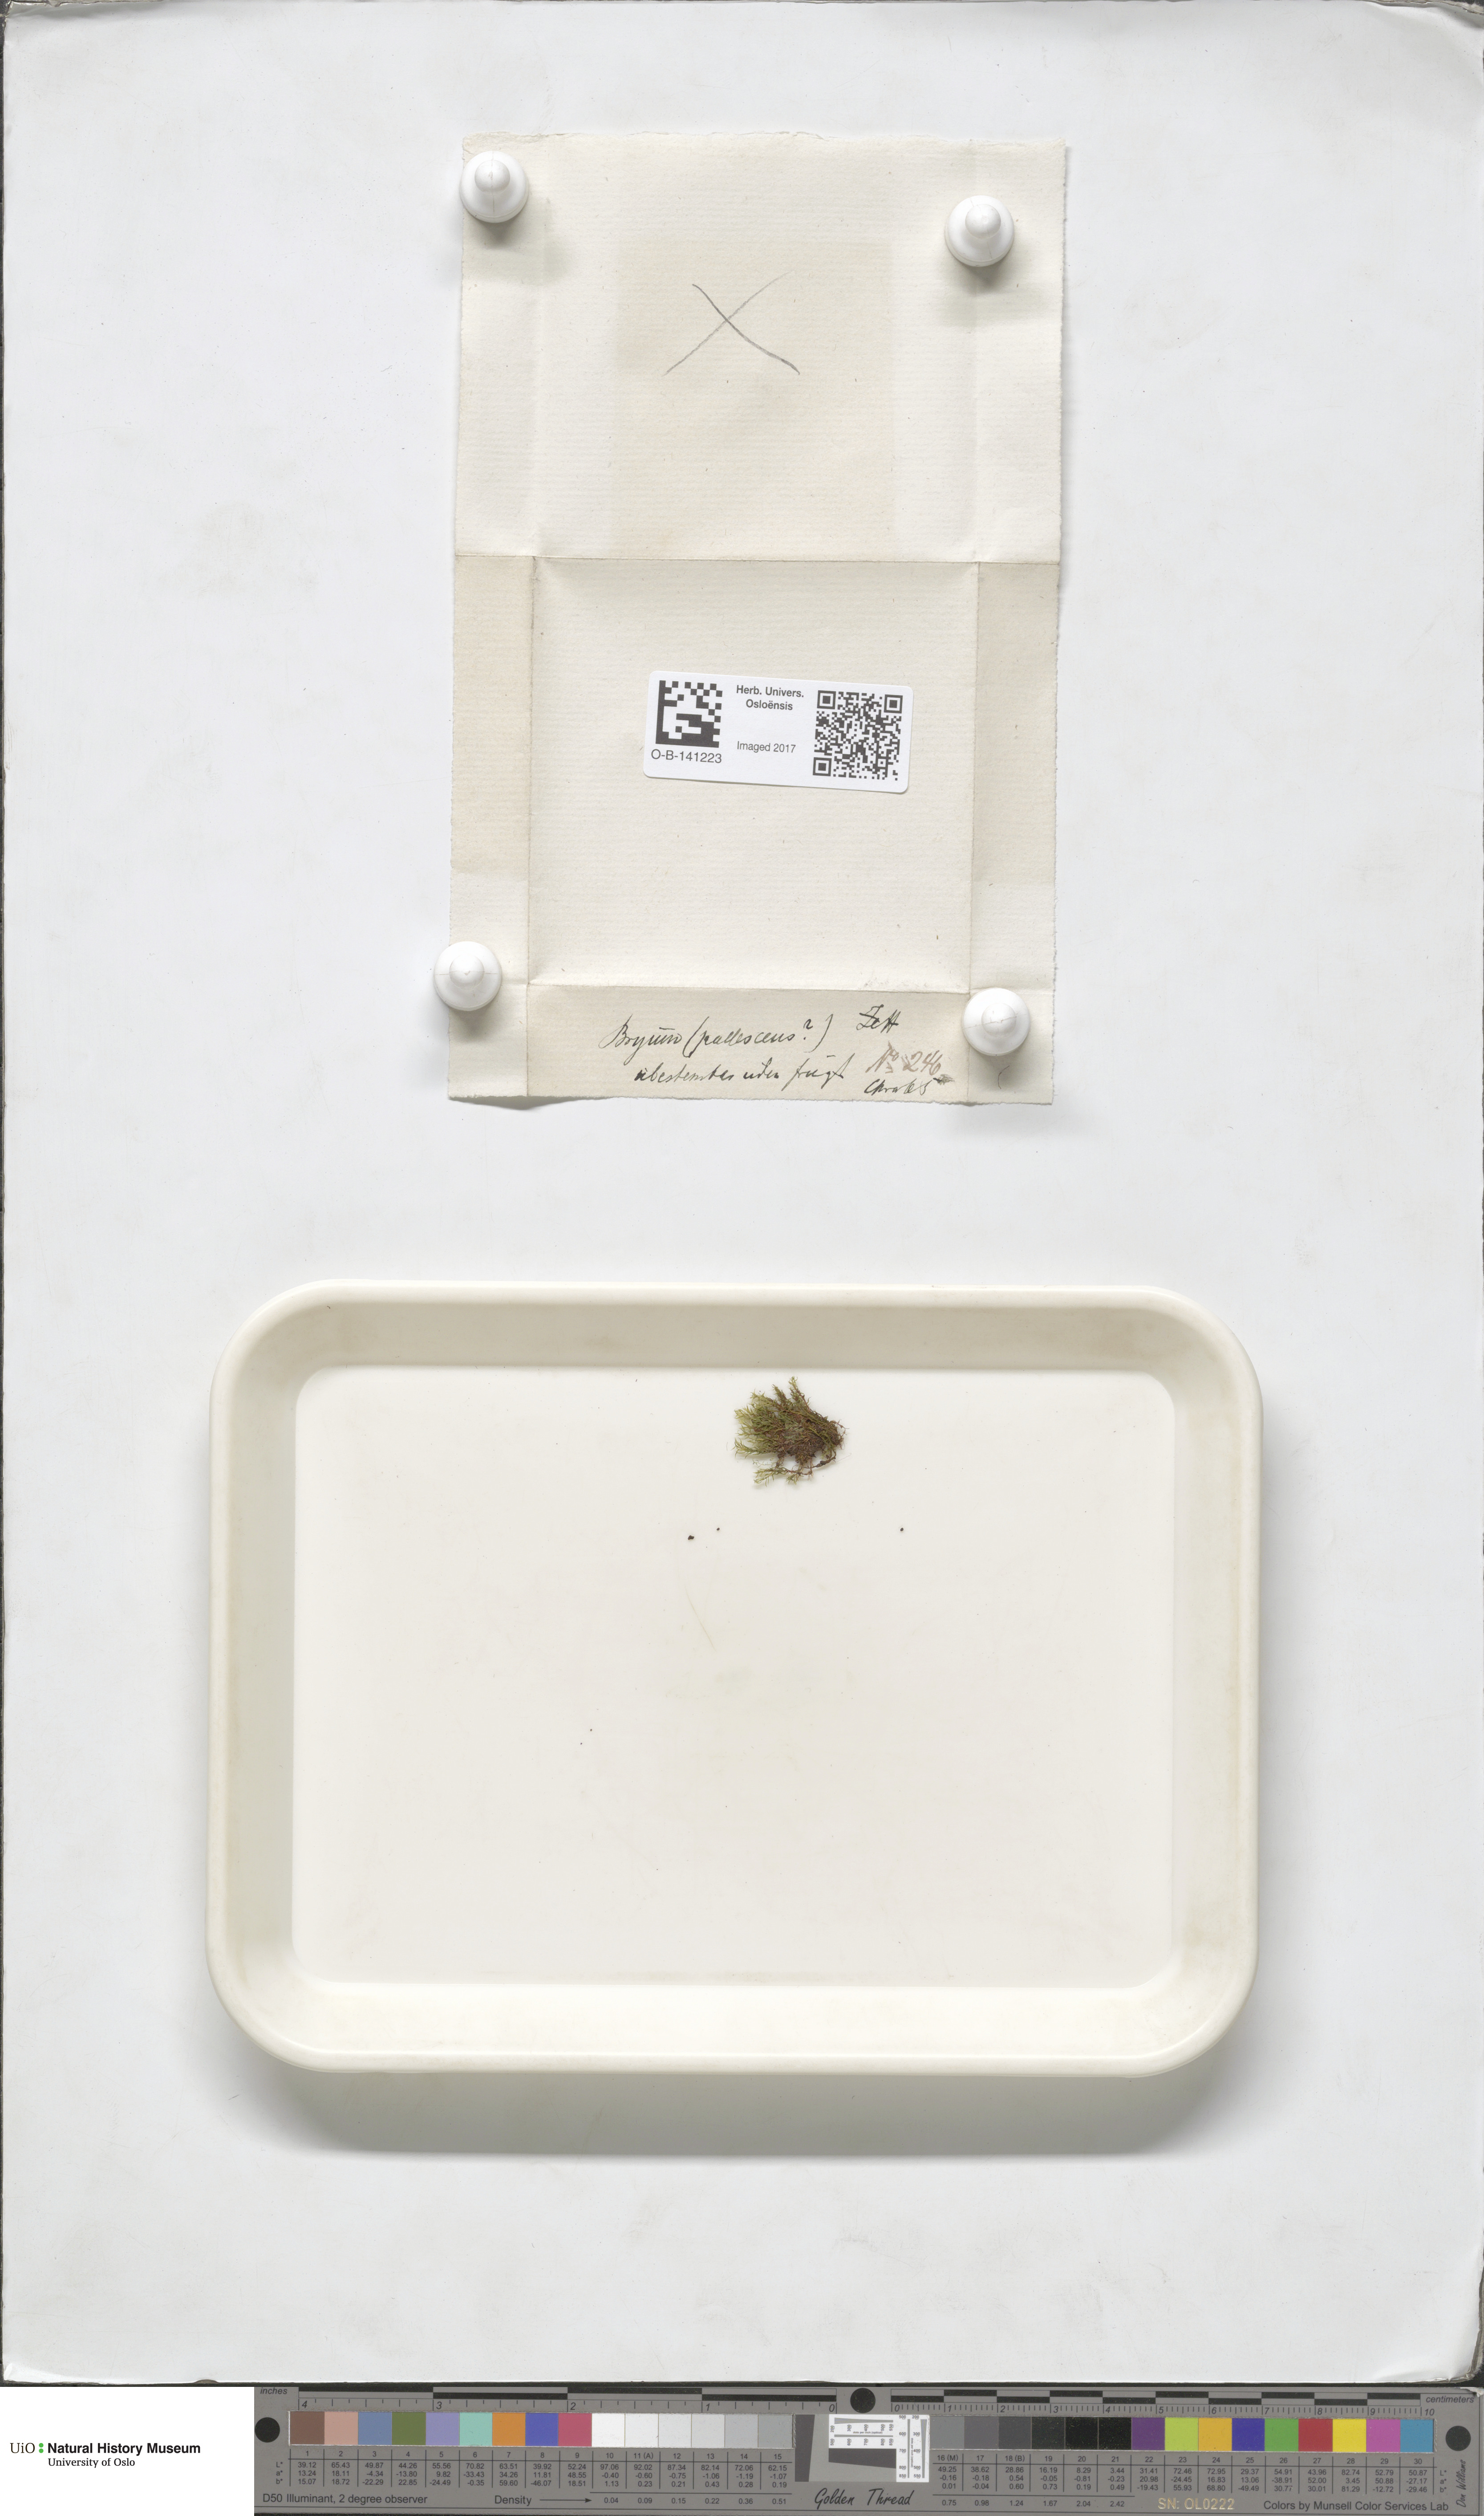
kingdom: Plantae
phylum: Bryophyta
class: Bryopsida
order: Bryales
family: Bryaceae
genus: Ptychostomum
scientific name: Ptychostomum pallens
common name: Pale thread-moss
